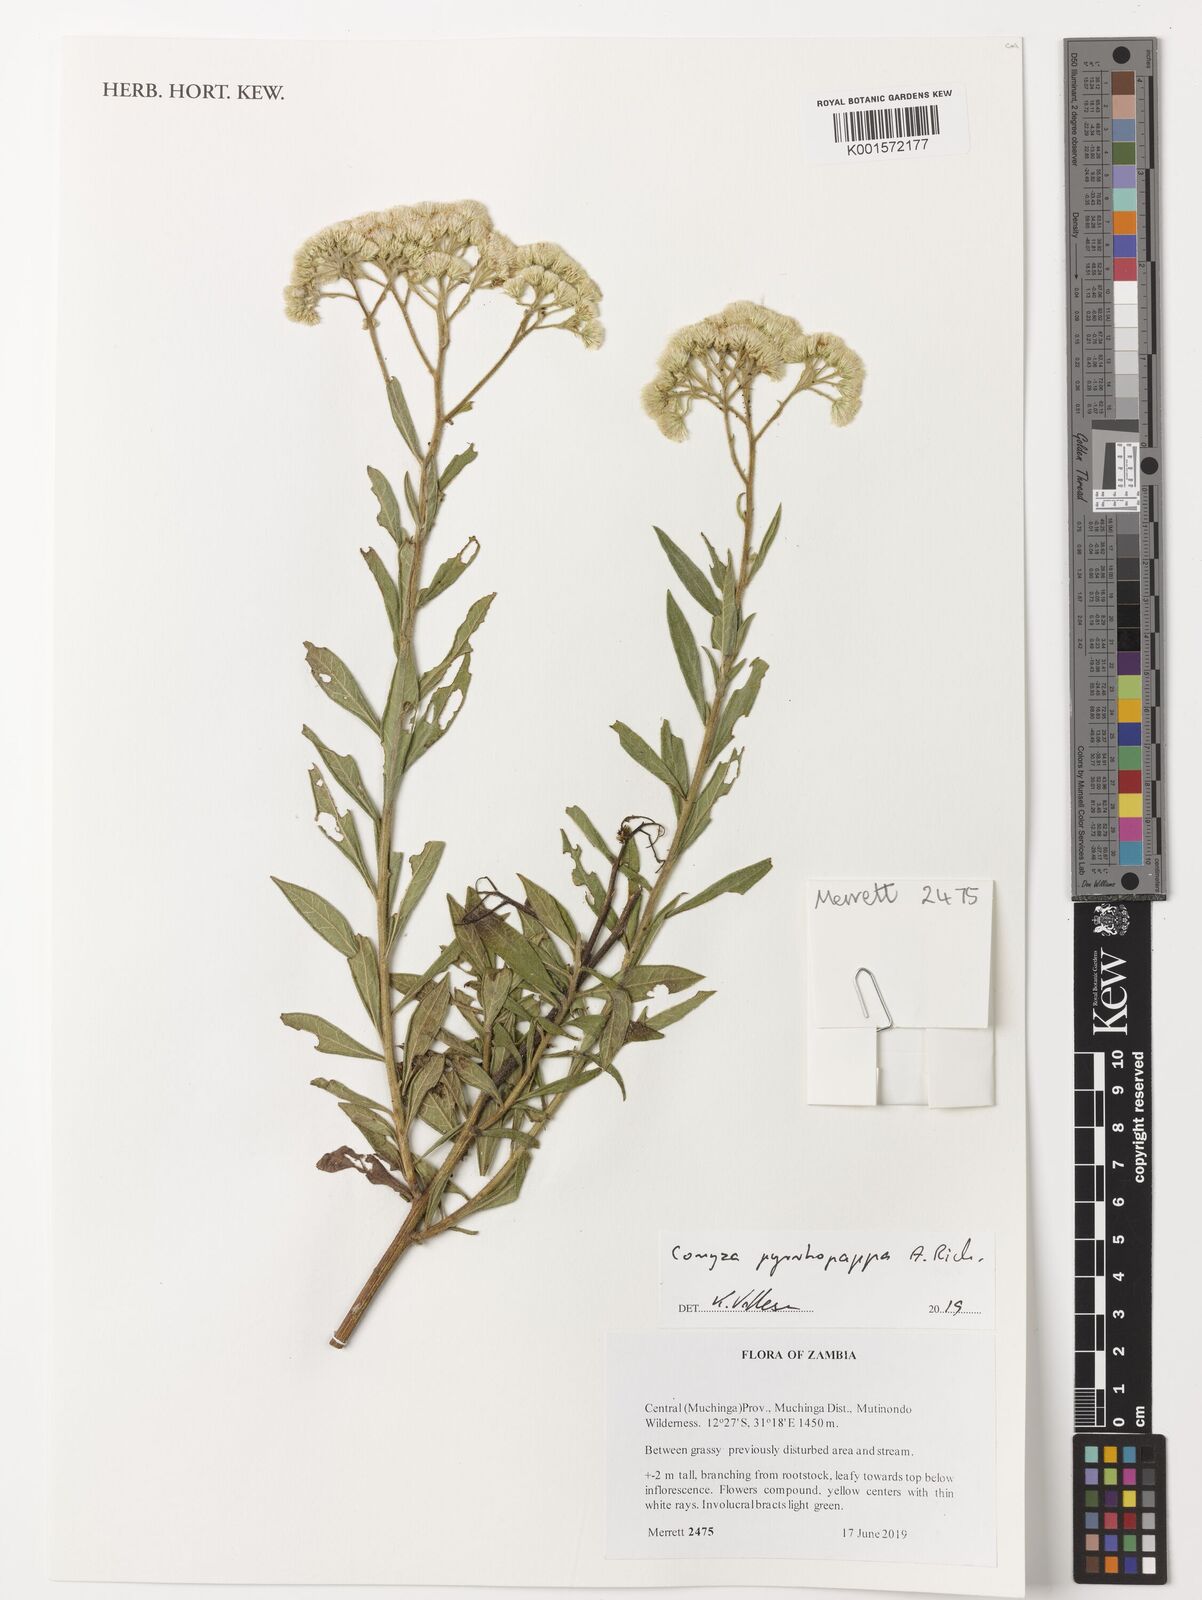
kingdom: Plantae
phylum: Tracheophyta
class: Magnoliopsida
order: Asterales
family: Asteraceae
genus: Microglossa
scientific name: Microglossa pyrrhopappa
